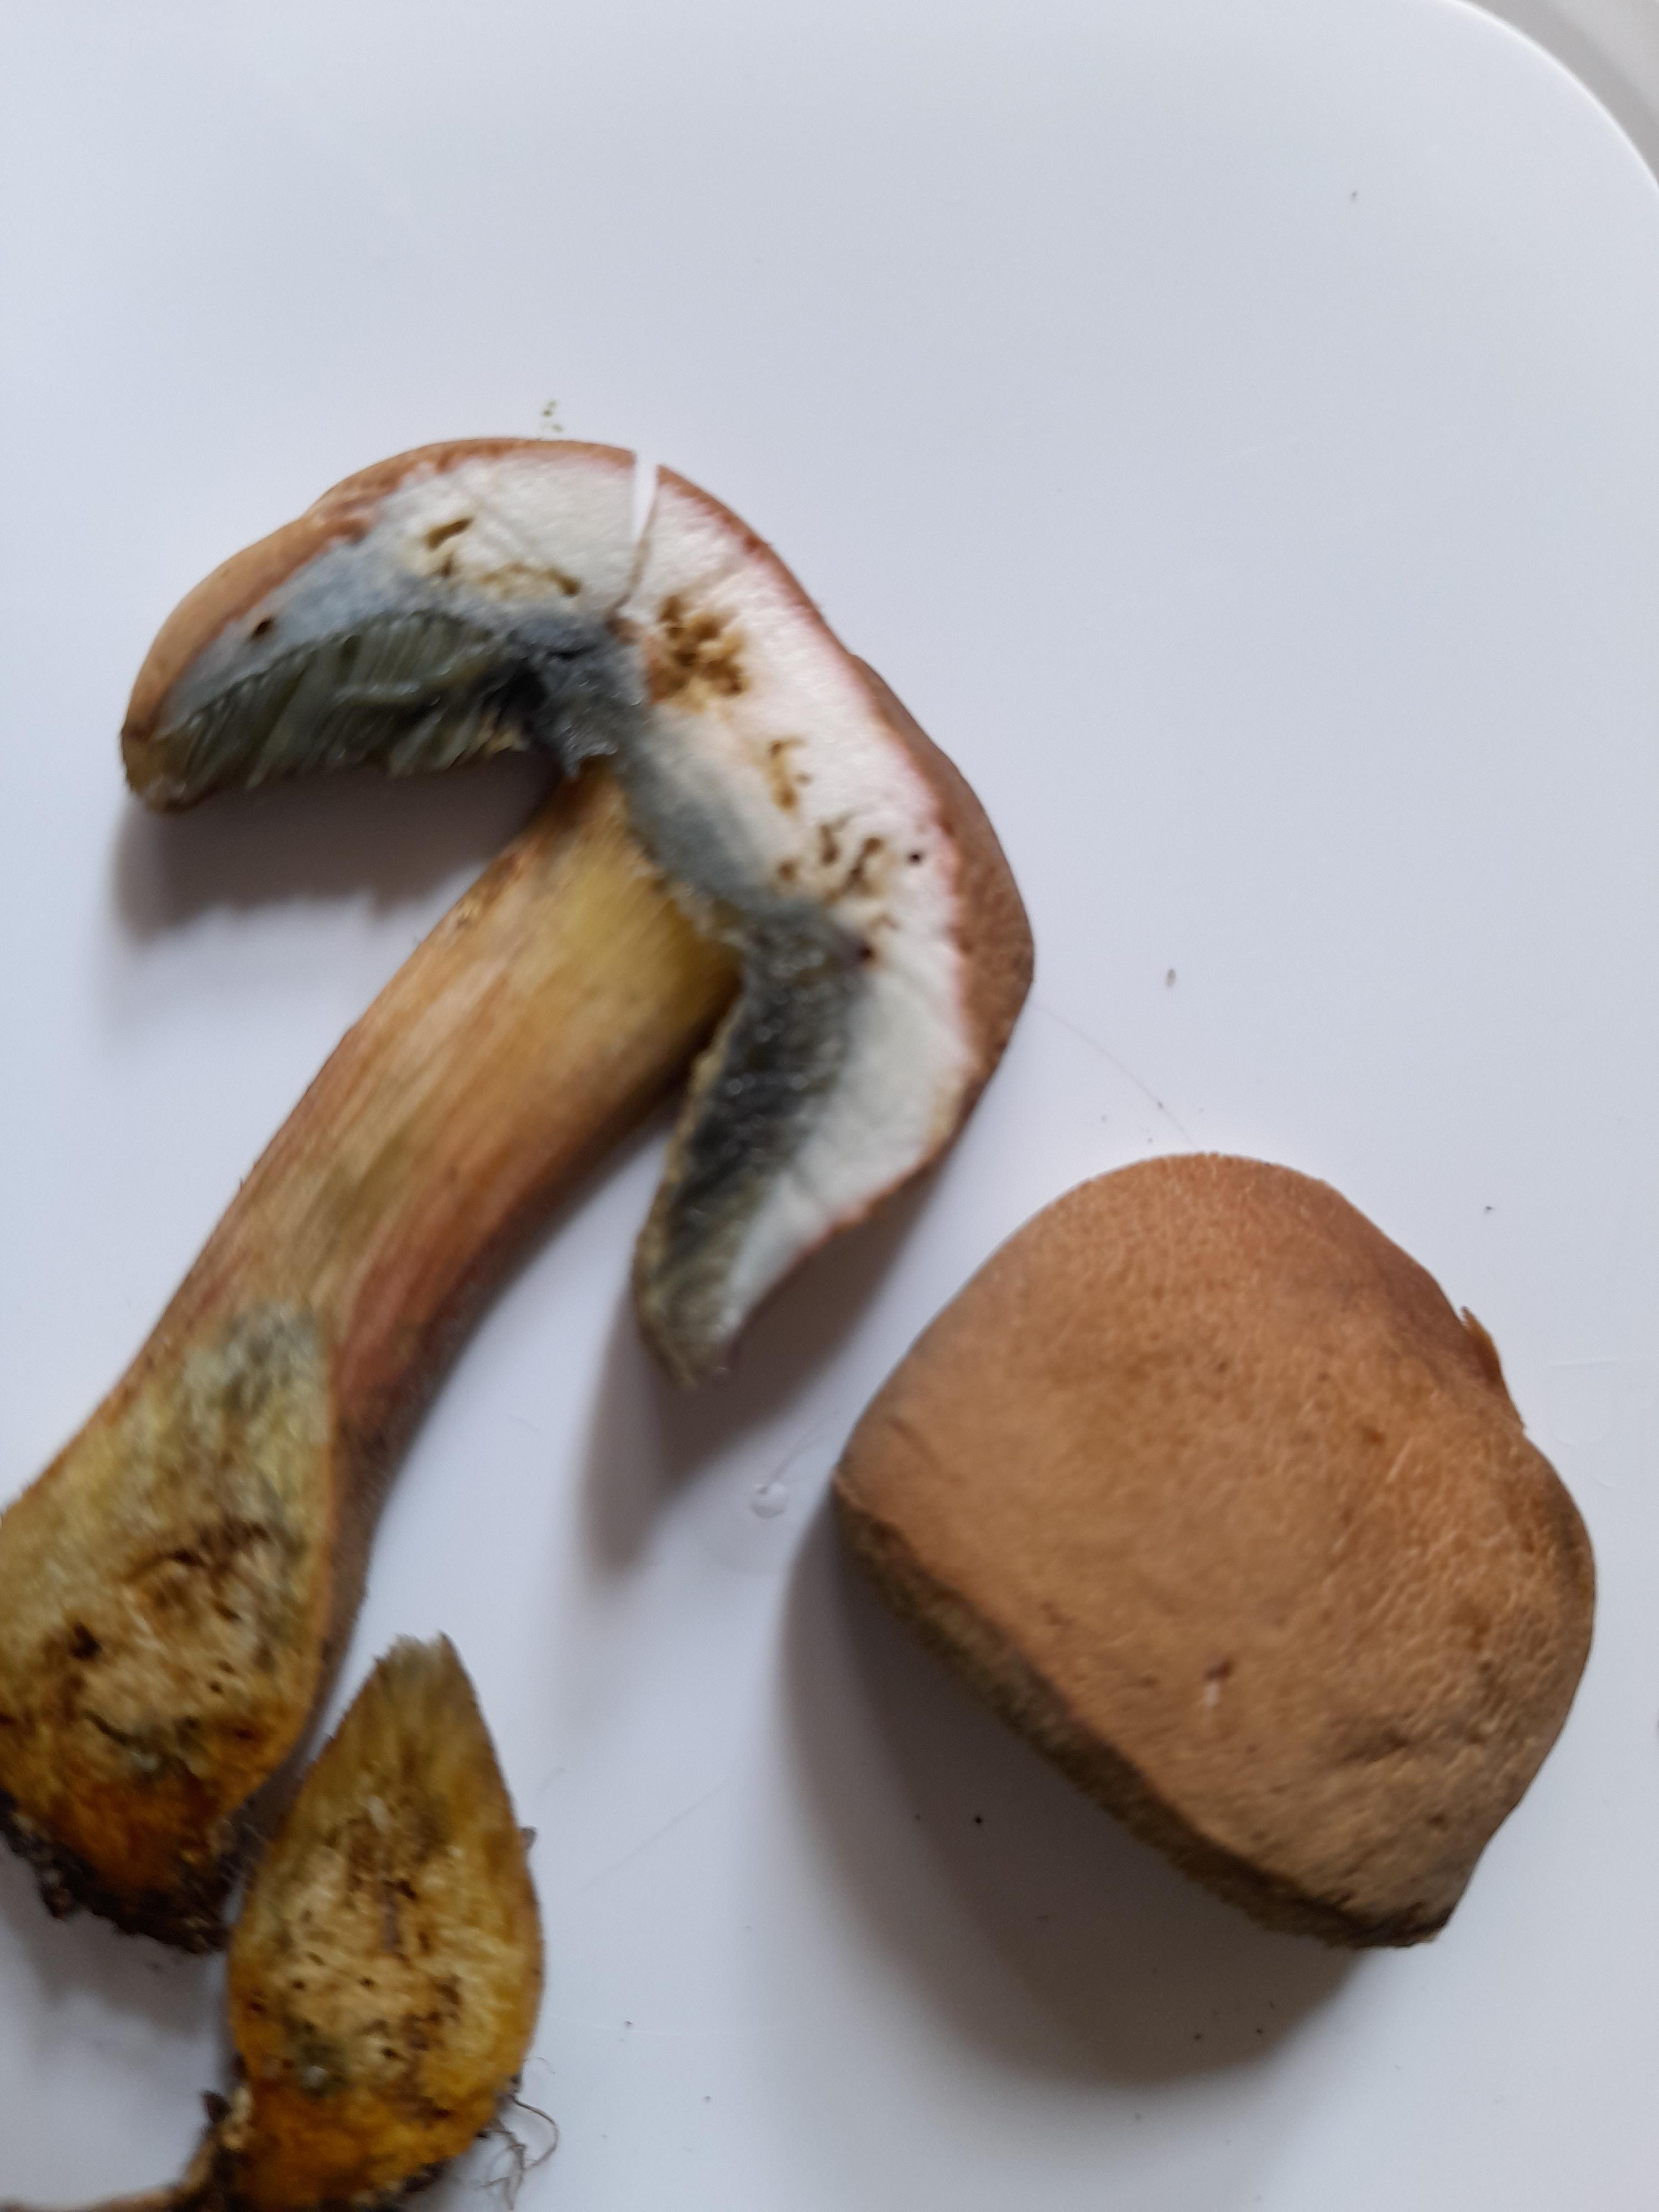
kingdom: Fungi
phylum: Basidiomycota
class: Agaricomycetes
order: Boletales
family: Boletaceae
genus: Hortiboletus
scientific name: Hortiboletus bubalinus
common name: aurora-rørhat
